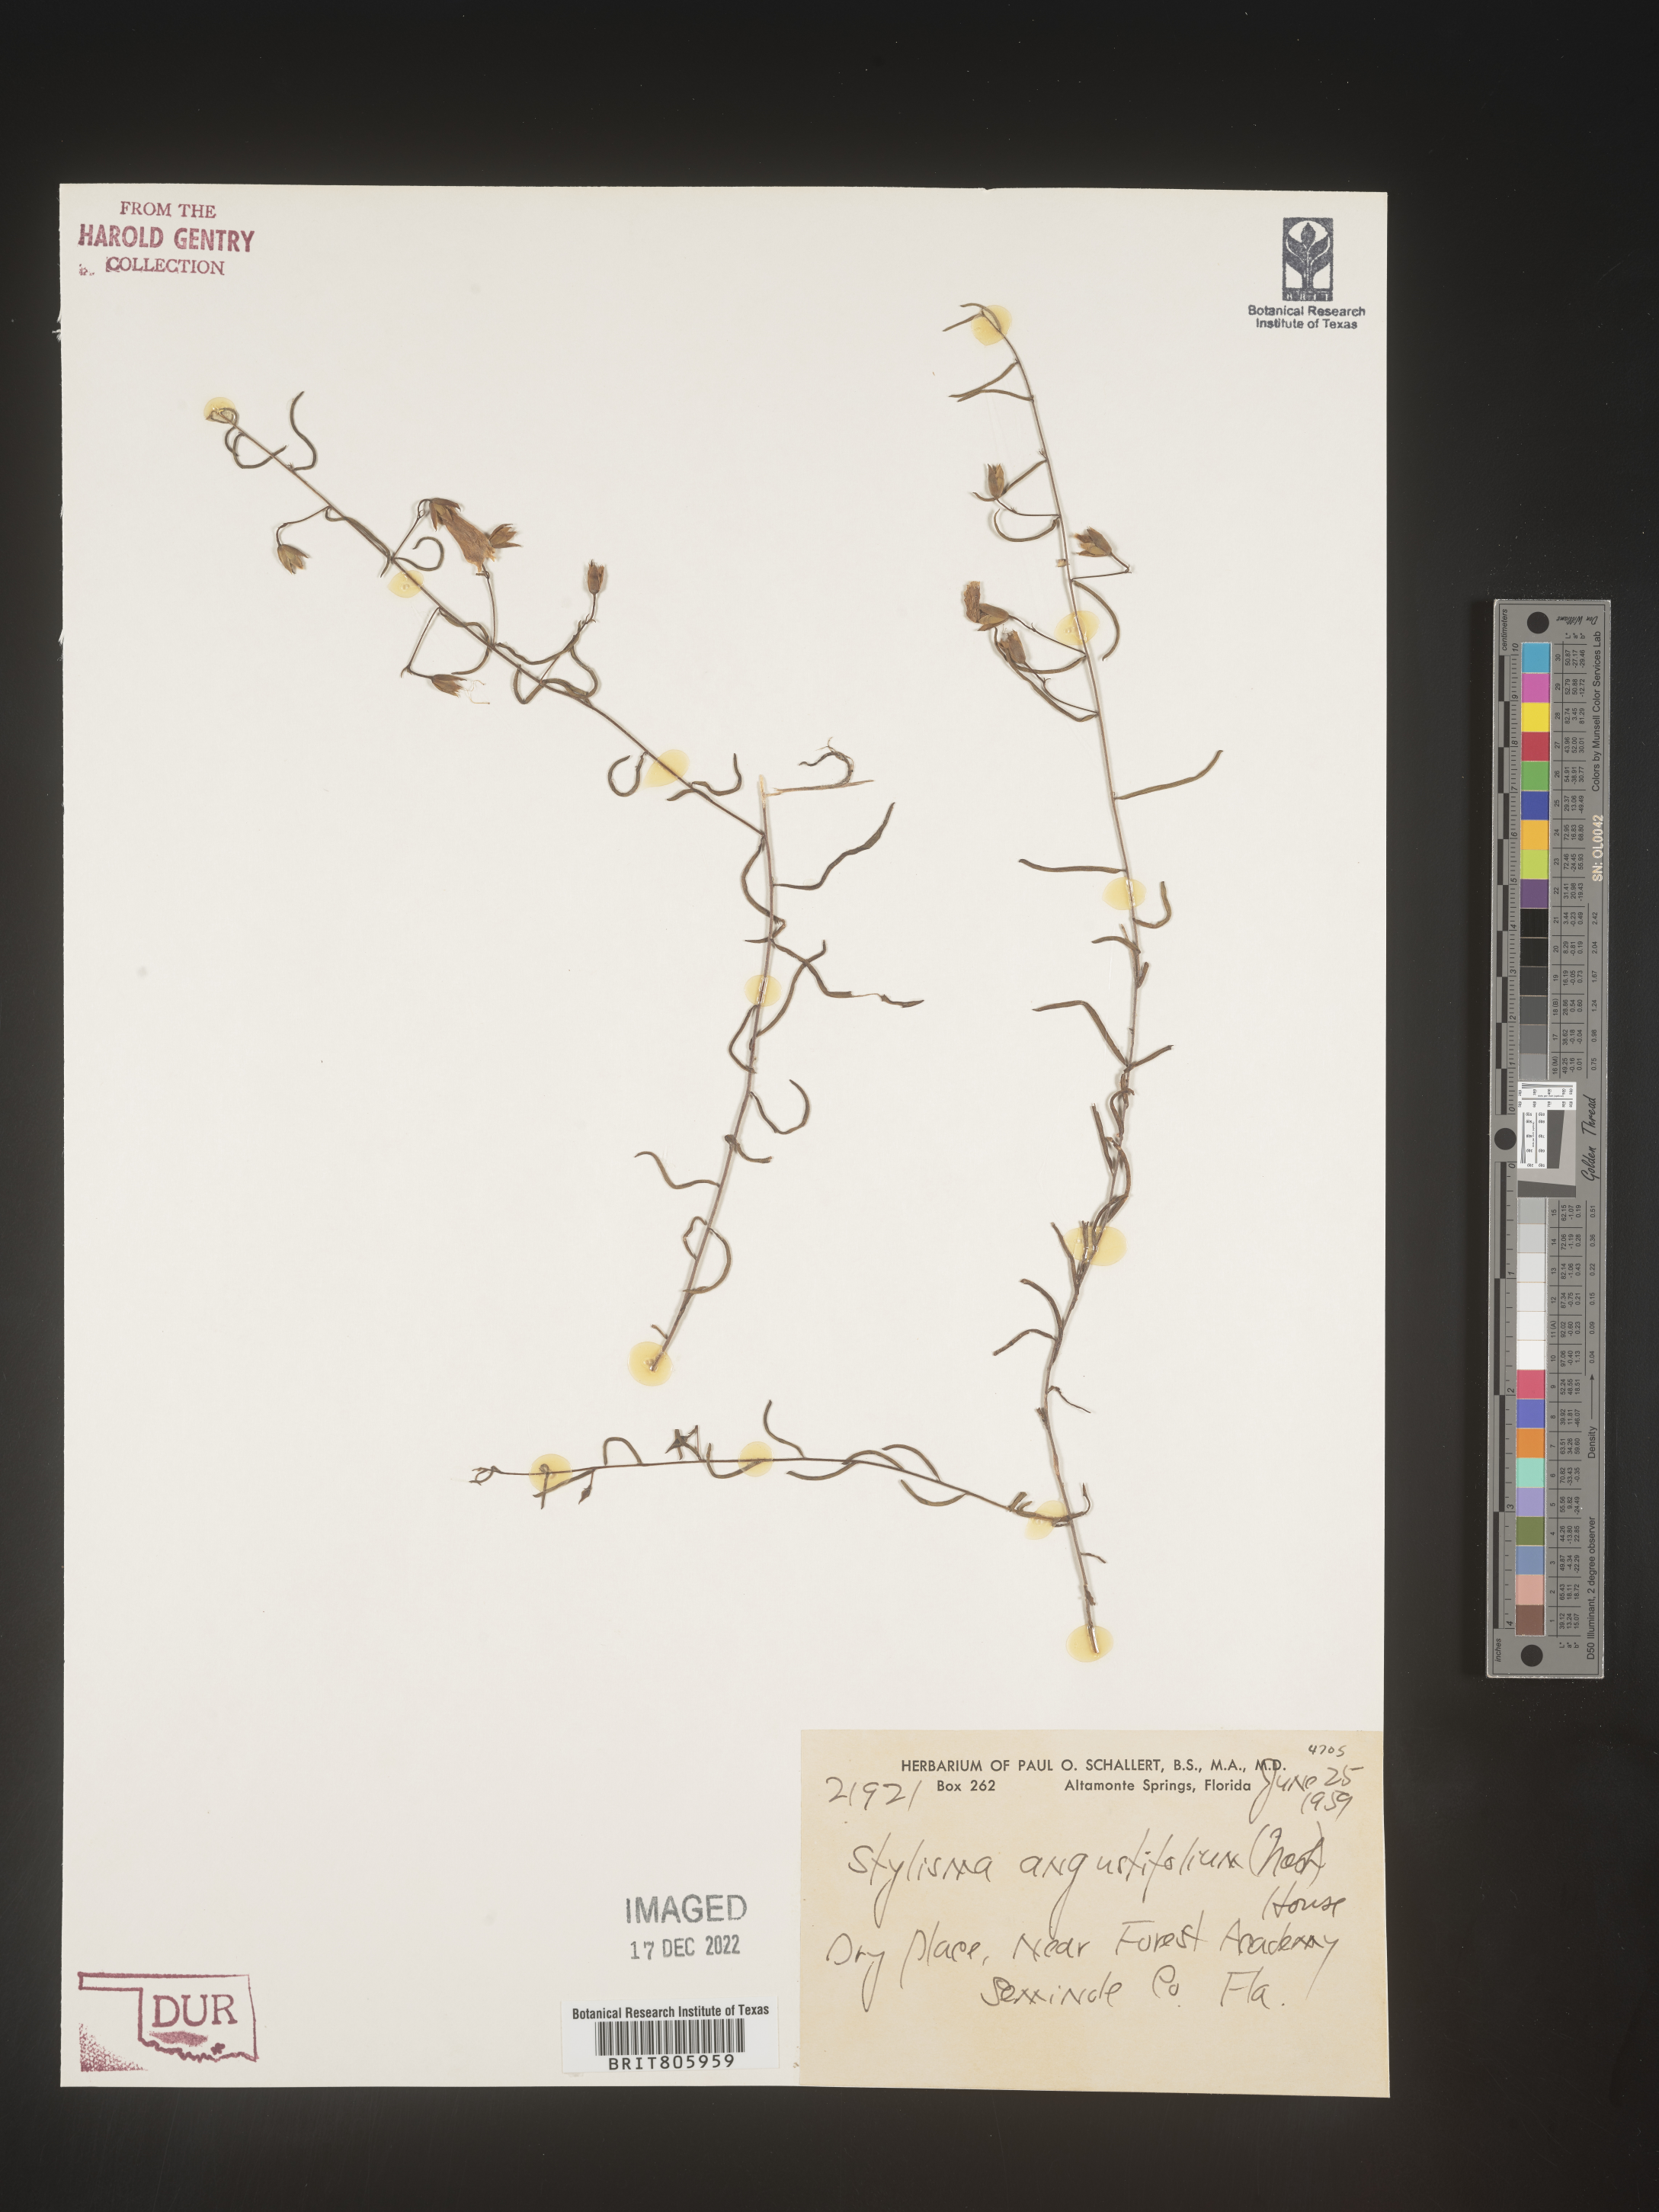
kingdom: Plantae
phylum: Tracheophyta
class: Magnoliopsida
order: Solanales
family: Convolvulaceae
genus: Stylisma
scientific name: Stylisma
